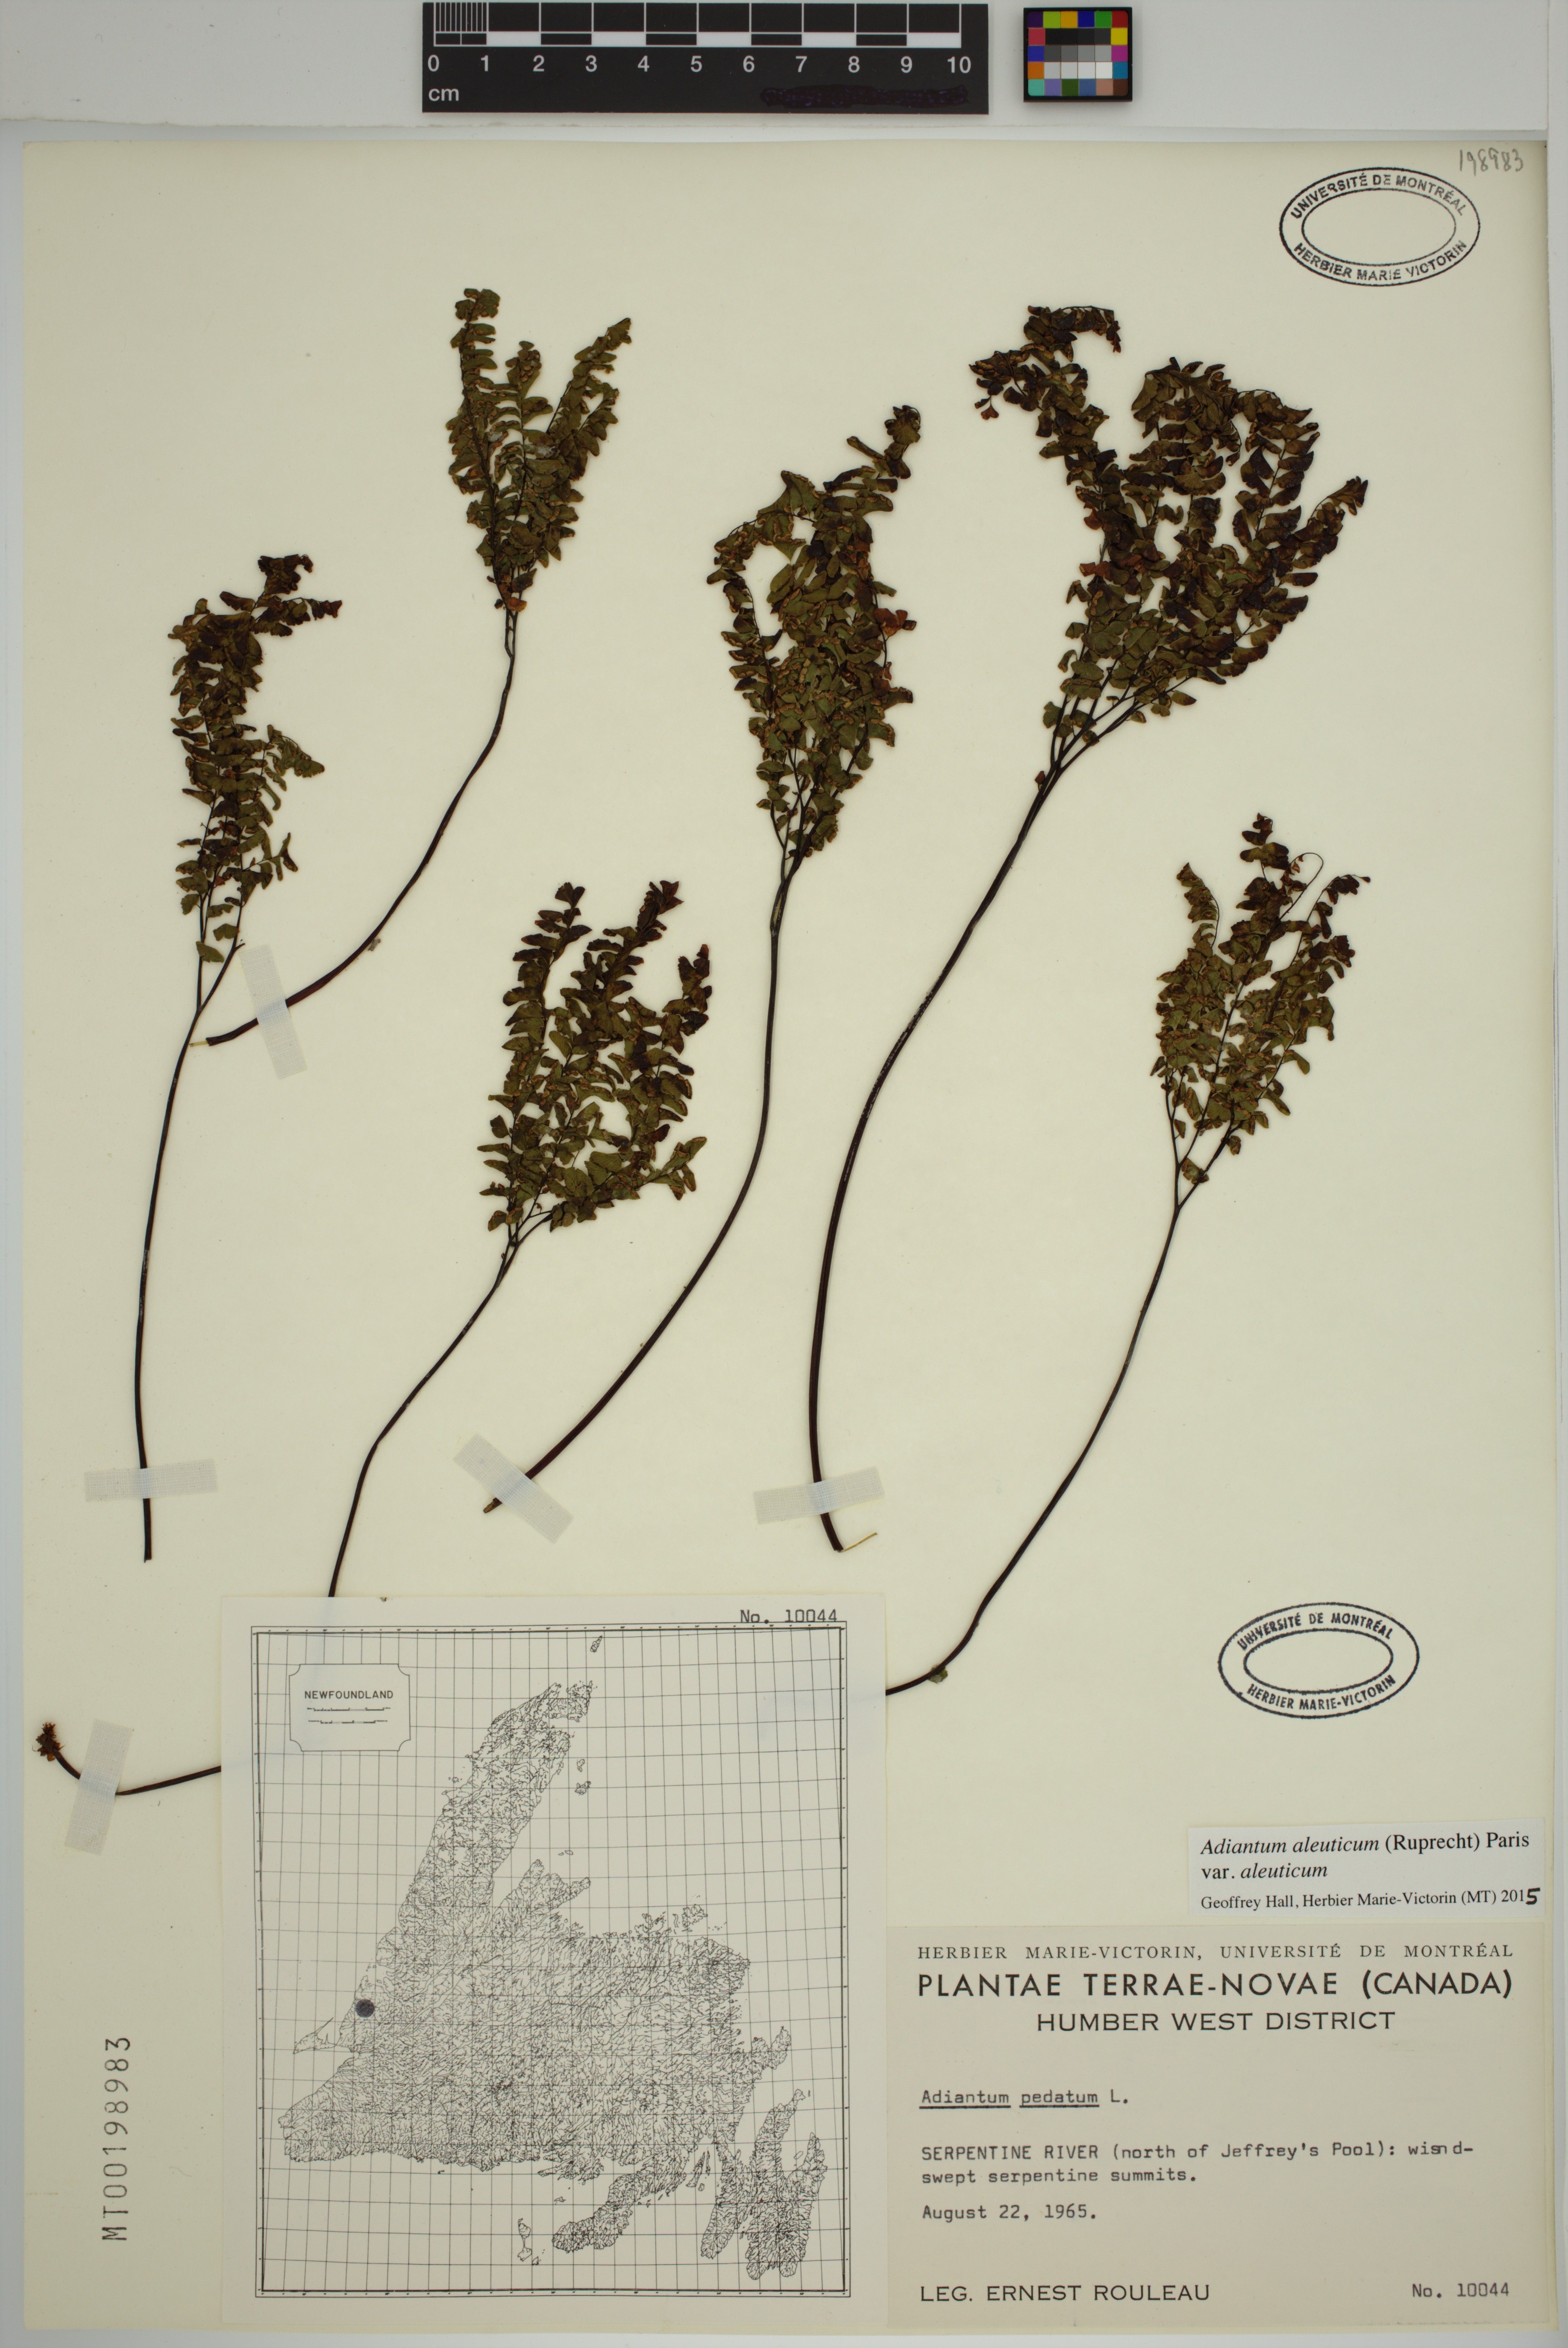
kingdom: Plantae
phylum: Tracheophyta
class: Polypodiopsida
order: Polypodiales
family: Pteridaceae
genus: Adiantum
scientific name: Adiantum aleuticum
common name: Aleutian maidenhair fern
